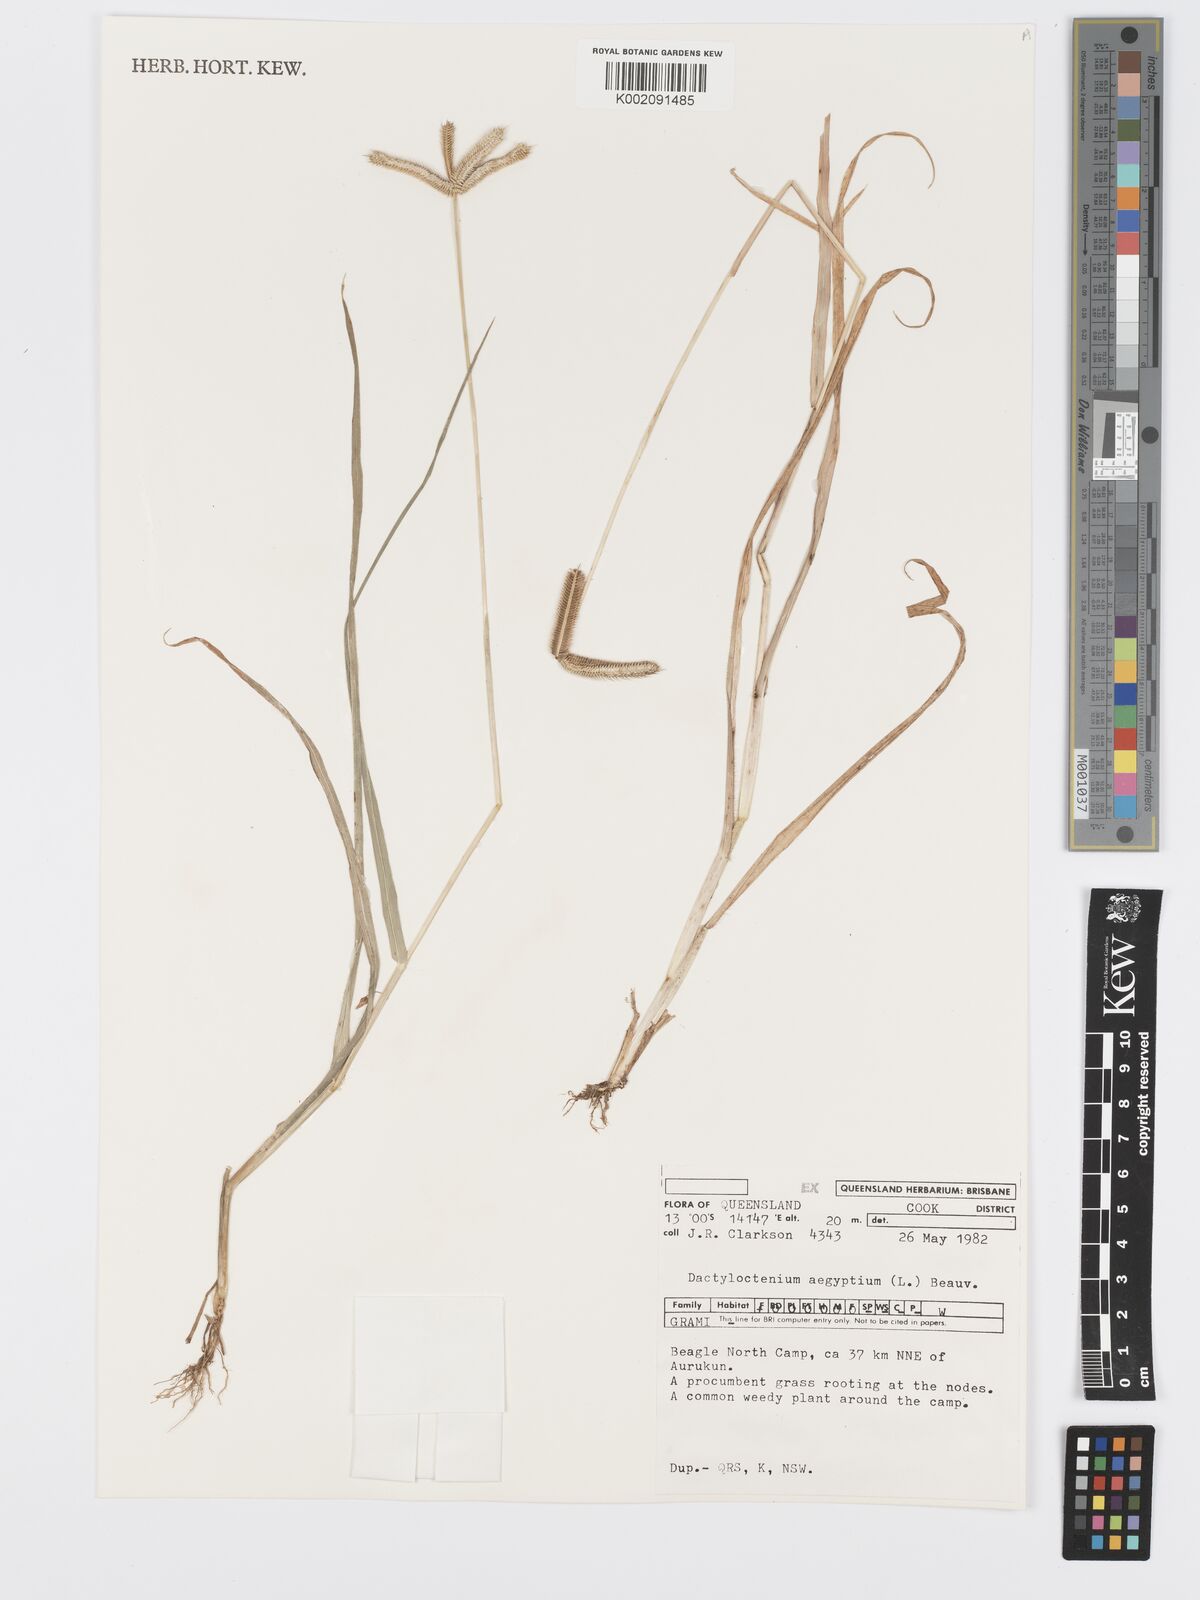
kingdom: Plantae
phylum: Tracheophyta
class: Liliopsida
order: Poales
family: Poaceae
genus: Dactyloctenium
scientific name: Dactyloctenium aegyptium
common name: Egyptian grass
